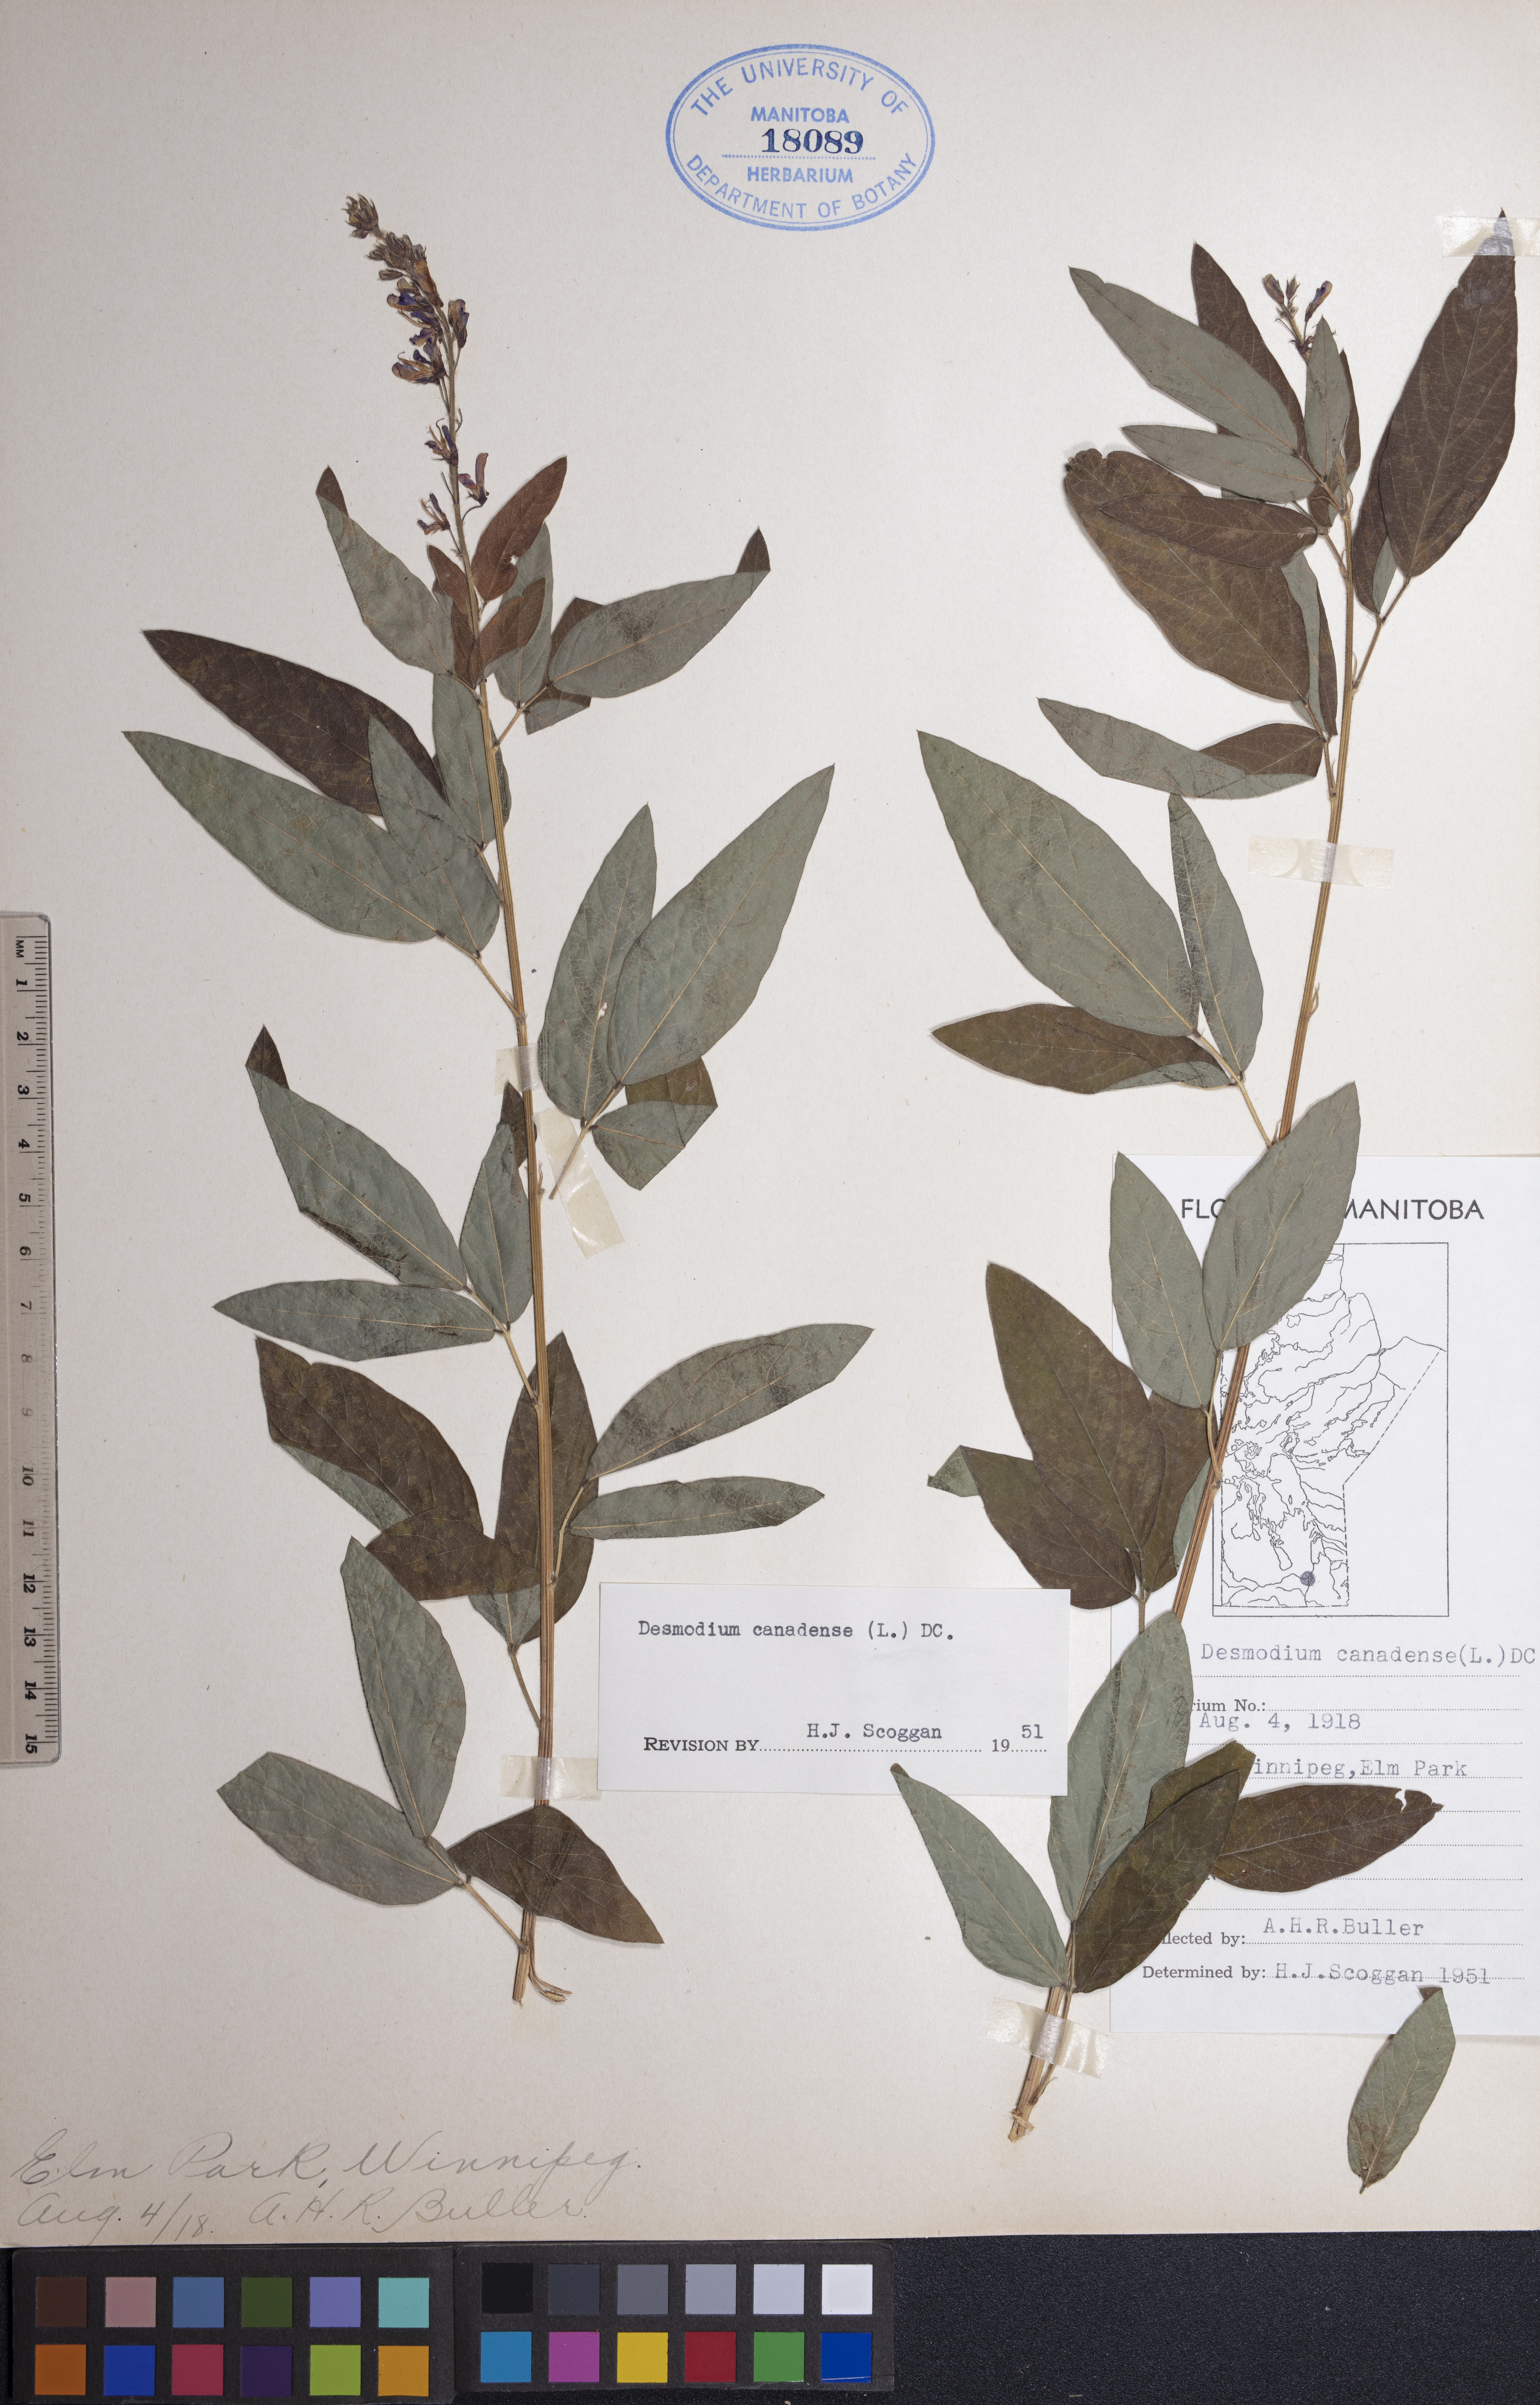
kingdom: Plantae
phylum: Tracheophyta
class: Magnoliopsida
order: Fabales
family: Fabaceae
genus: Desmodium
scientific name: Desmodium canadense
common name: Canada tick-trefoil
